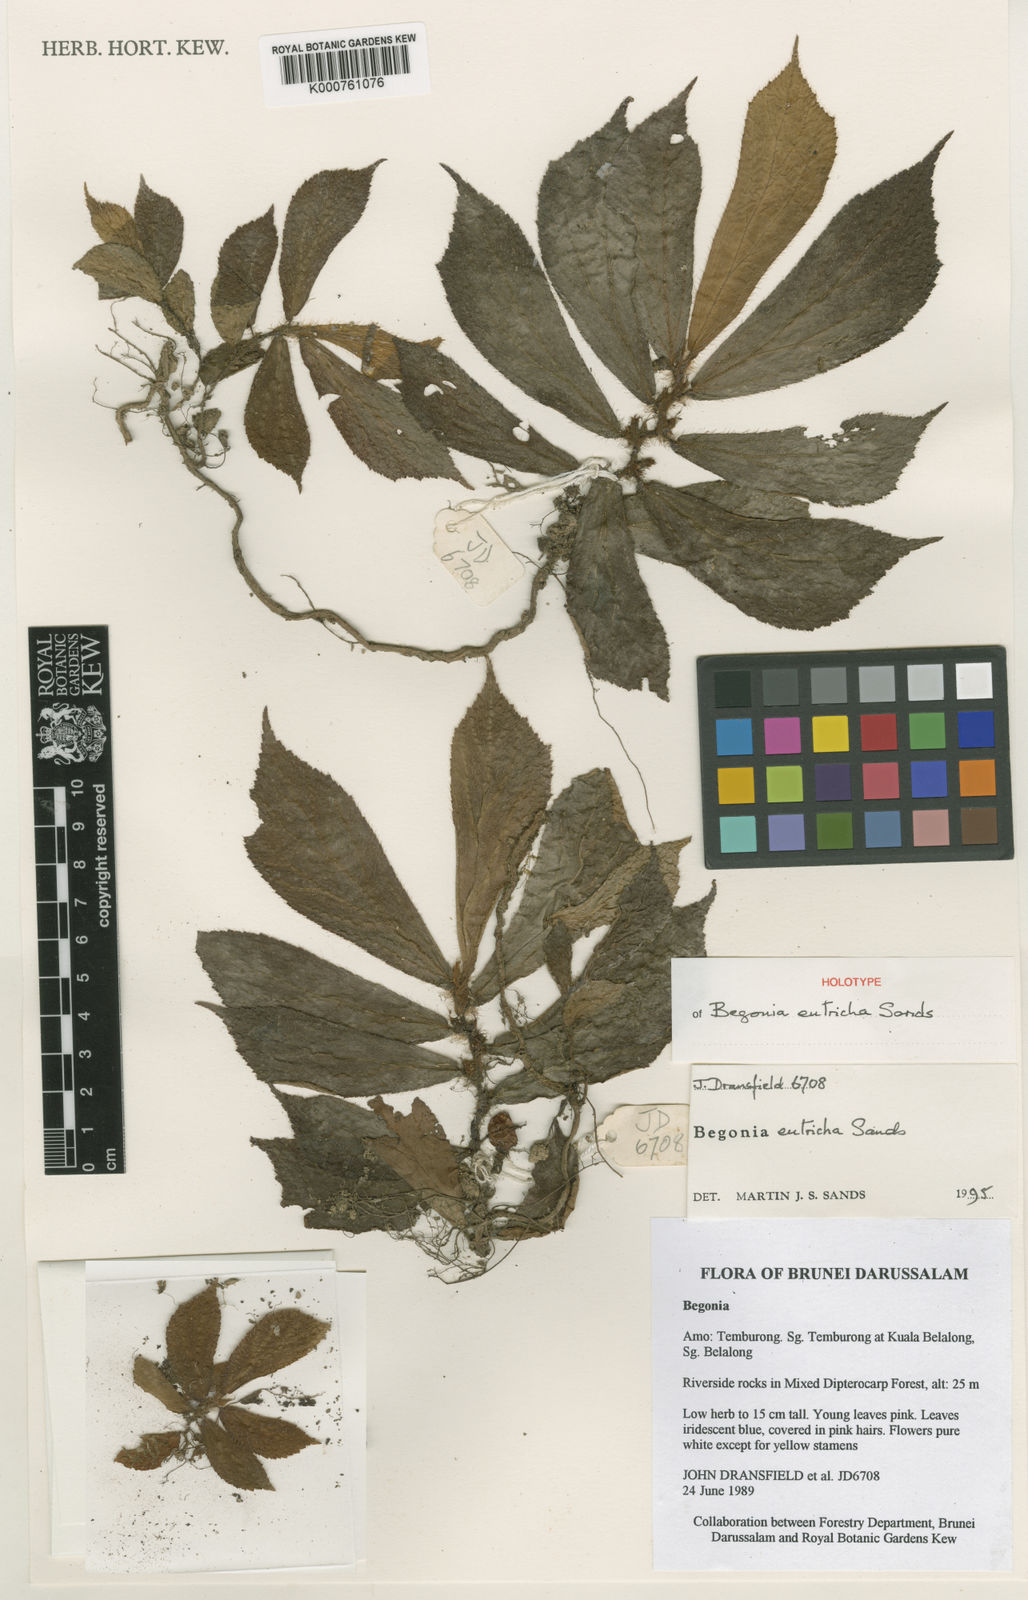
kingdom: Plantae
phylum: Tracheophyta
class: Magnoliopsida
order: Cucurbitales
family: Begoniaceae
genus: Begonia
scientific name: Begonia eutricha
